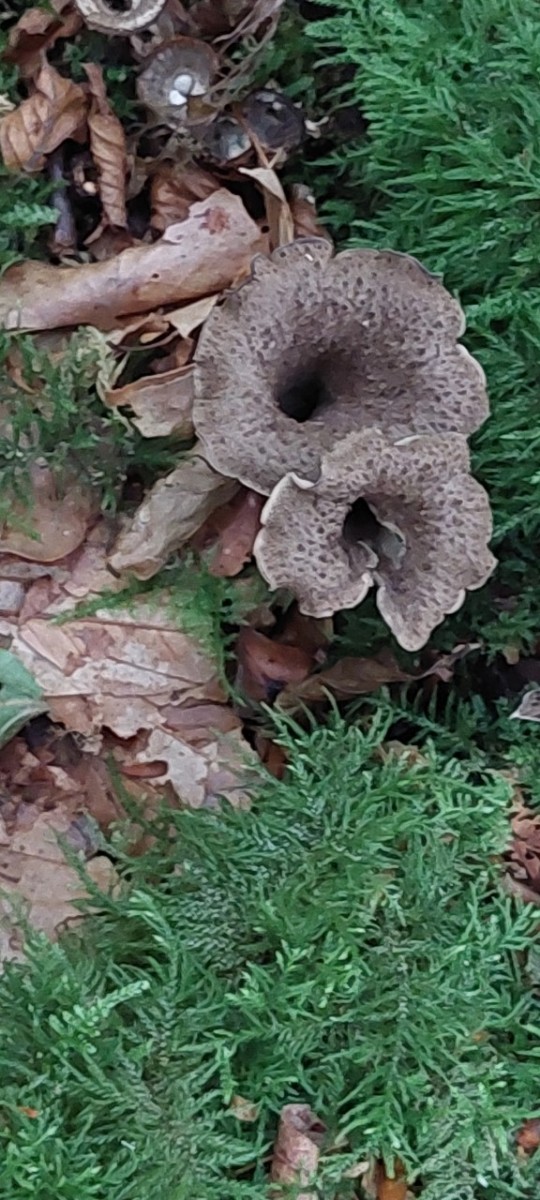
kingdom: Fungi
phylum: Basidiomycota
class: Agaricomycetes
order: Cantharellales
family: Hydnaceae
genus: Craterellus
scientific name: Craterellus cornucopioides
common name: trompetsvamp
